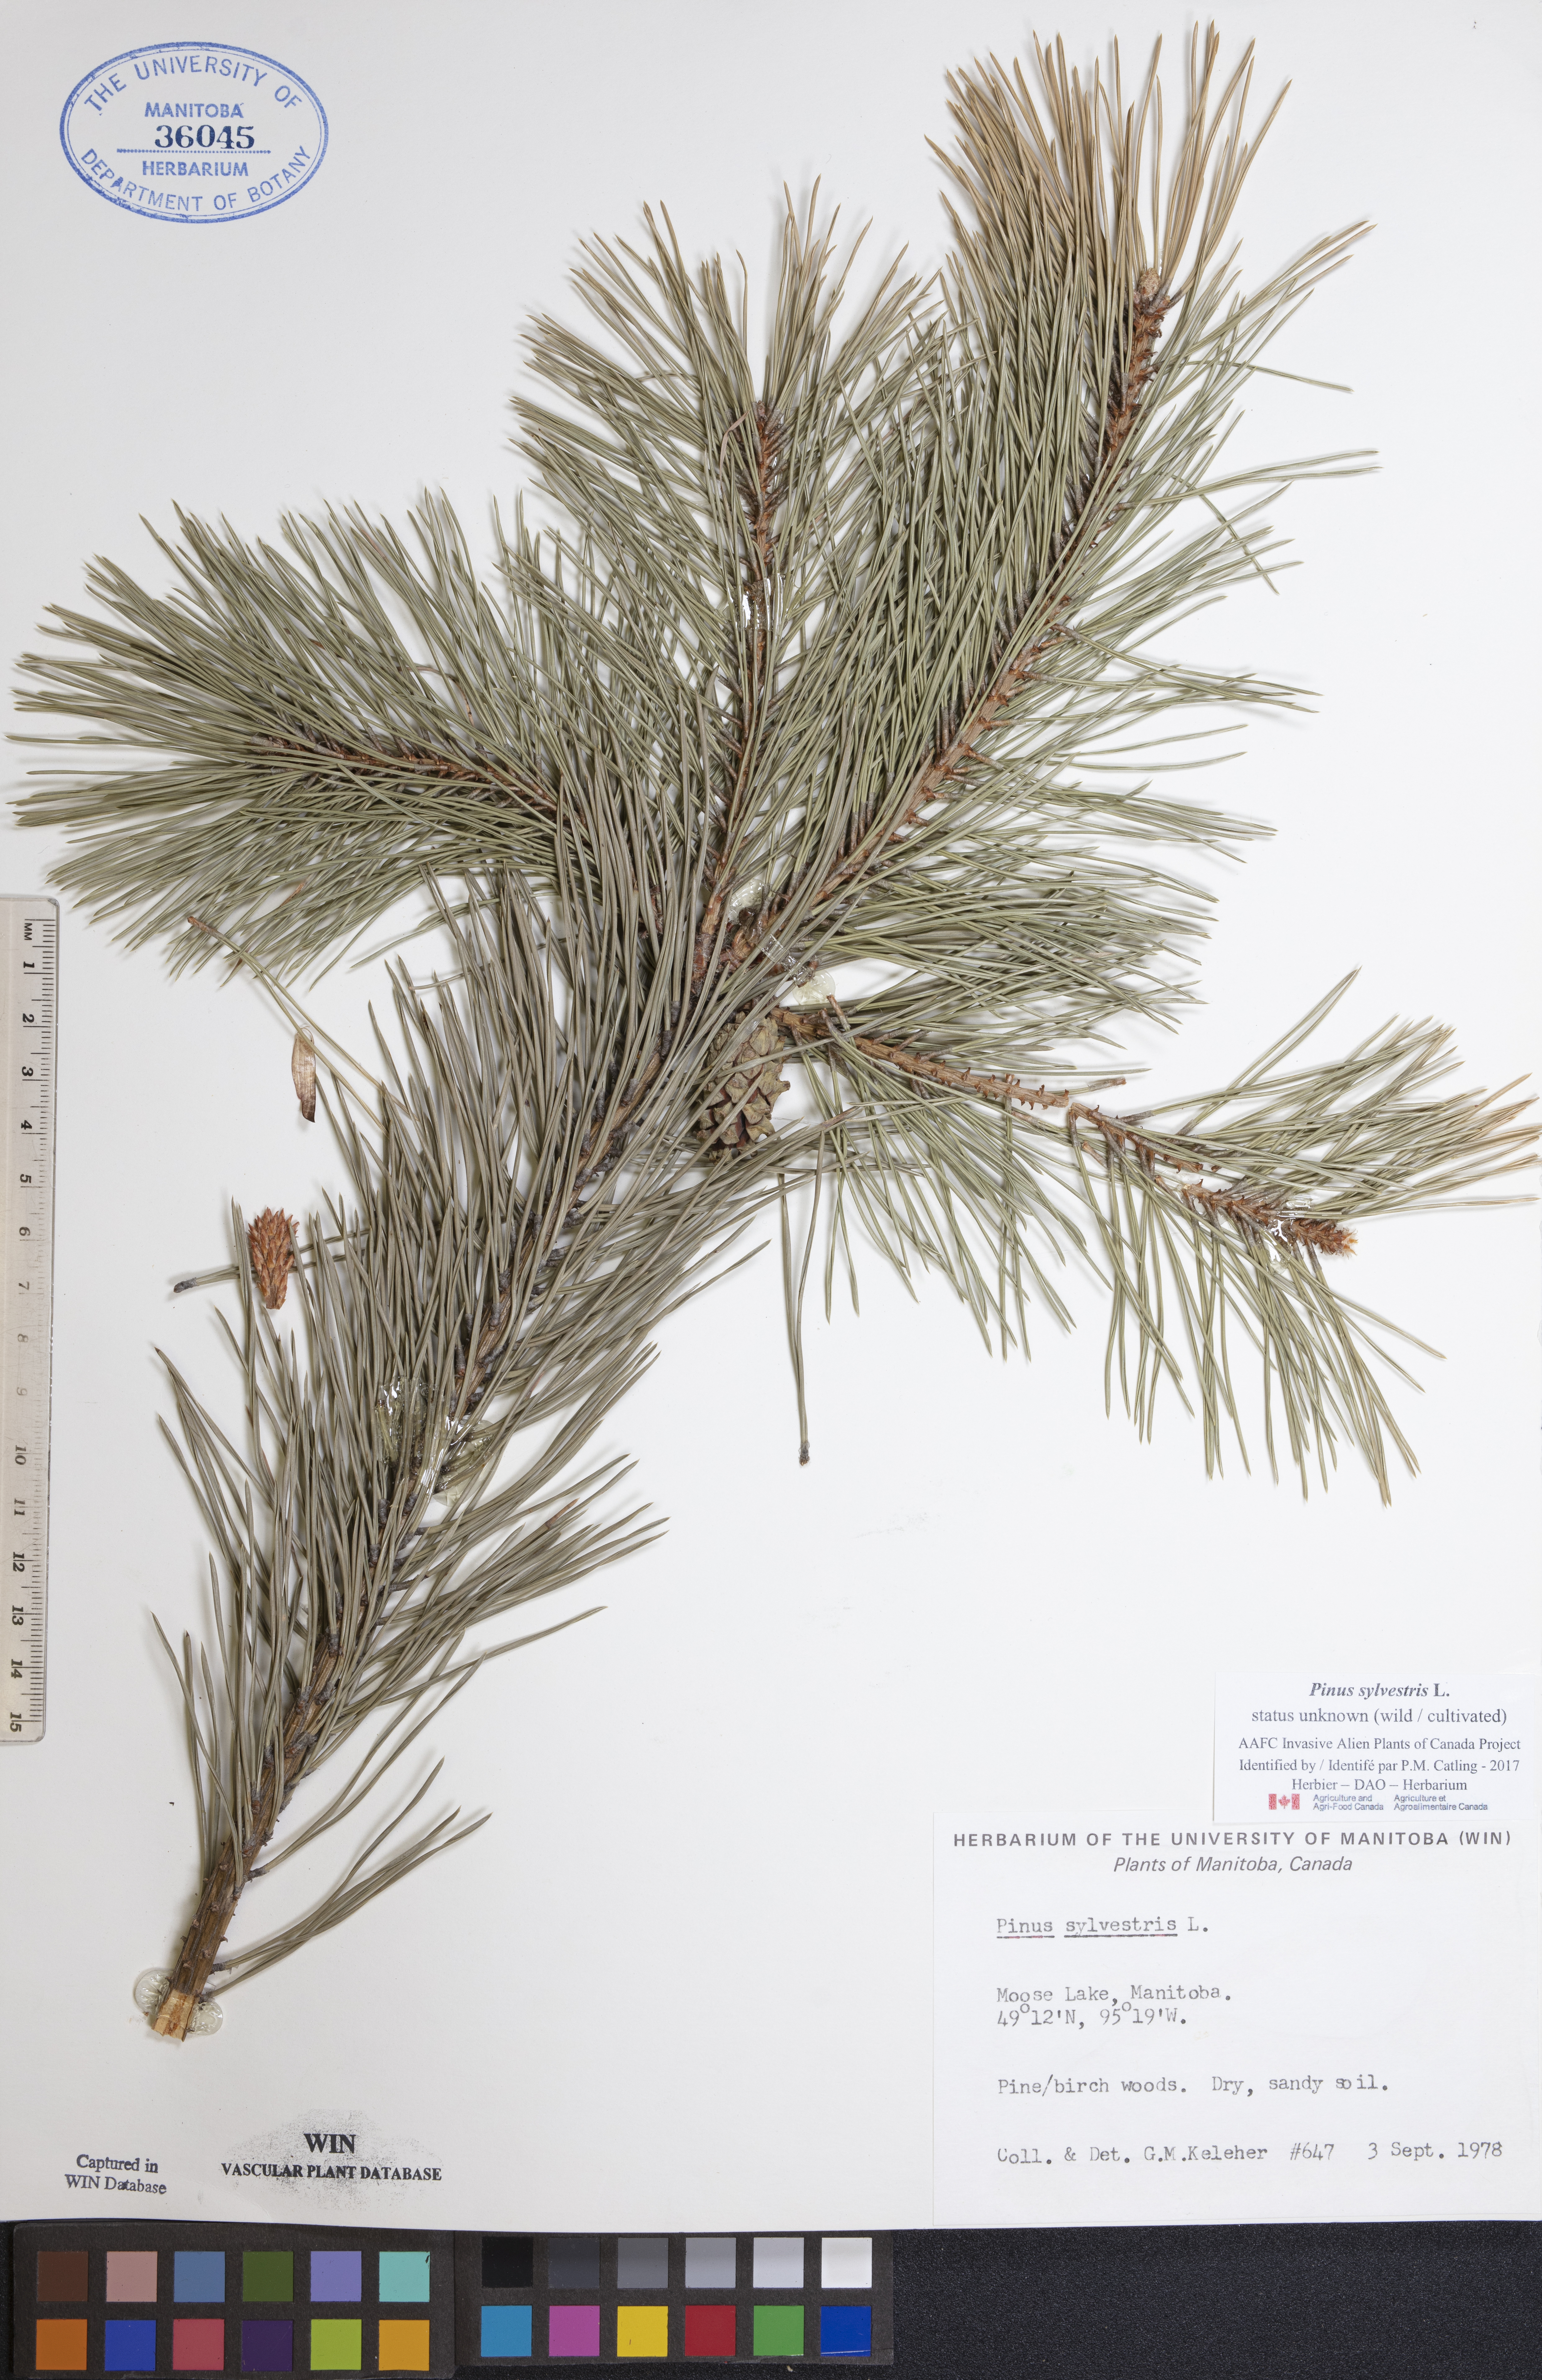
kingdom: Plantae
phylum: Tracheophyta
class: Pinopsida
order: Pinales
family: Pinaceae
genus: Pinus
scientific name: Pinus sylvestris
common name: Scots pine
